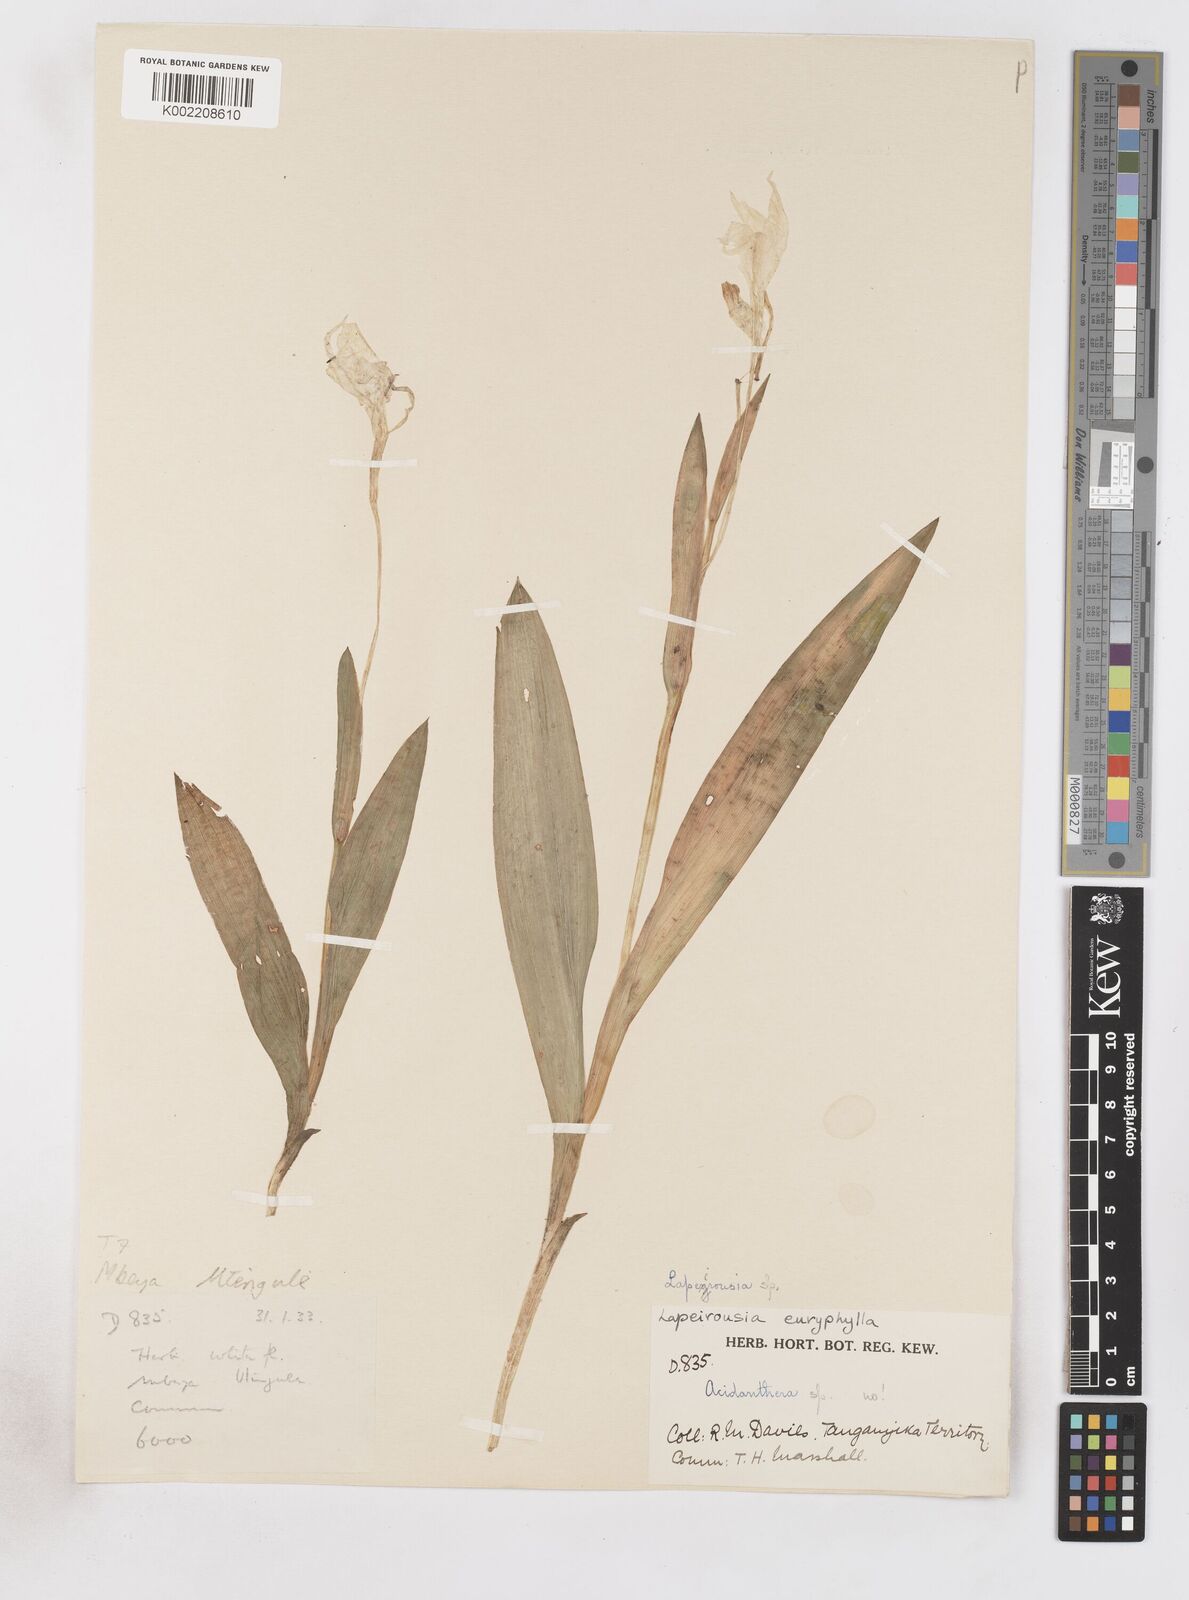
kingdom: Plantae
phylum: Tracheophyta
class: Liliopsida
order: Asparagales
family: Iridaceae
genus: Savannosiphon
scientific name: Savannosiphon euryphylla
